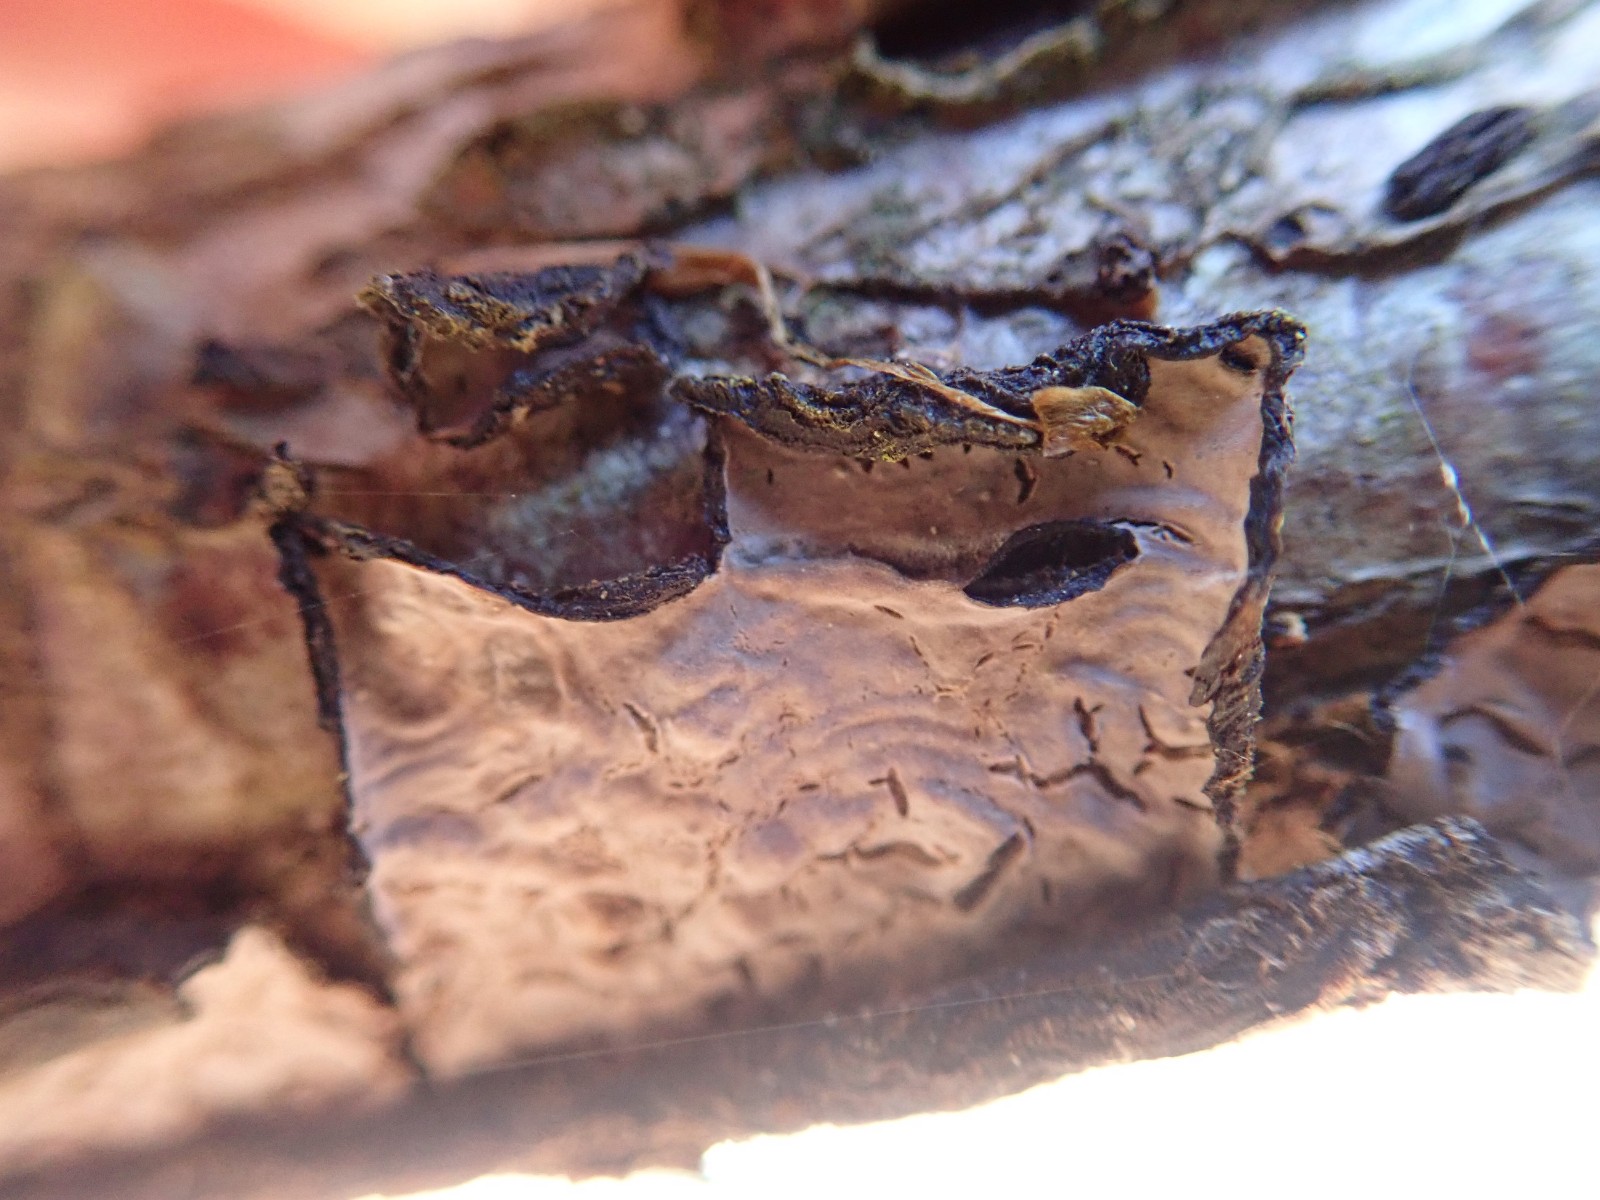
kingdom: Fungi
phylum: Basidiomycota
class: Agaricomycetes
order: Russulales
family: Peniophoraceae
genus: Peniophora
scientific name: Peniophora quercina
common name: ege-voksskind
